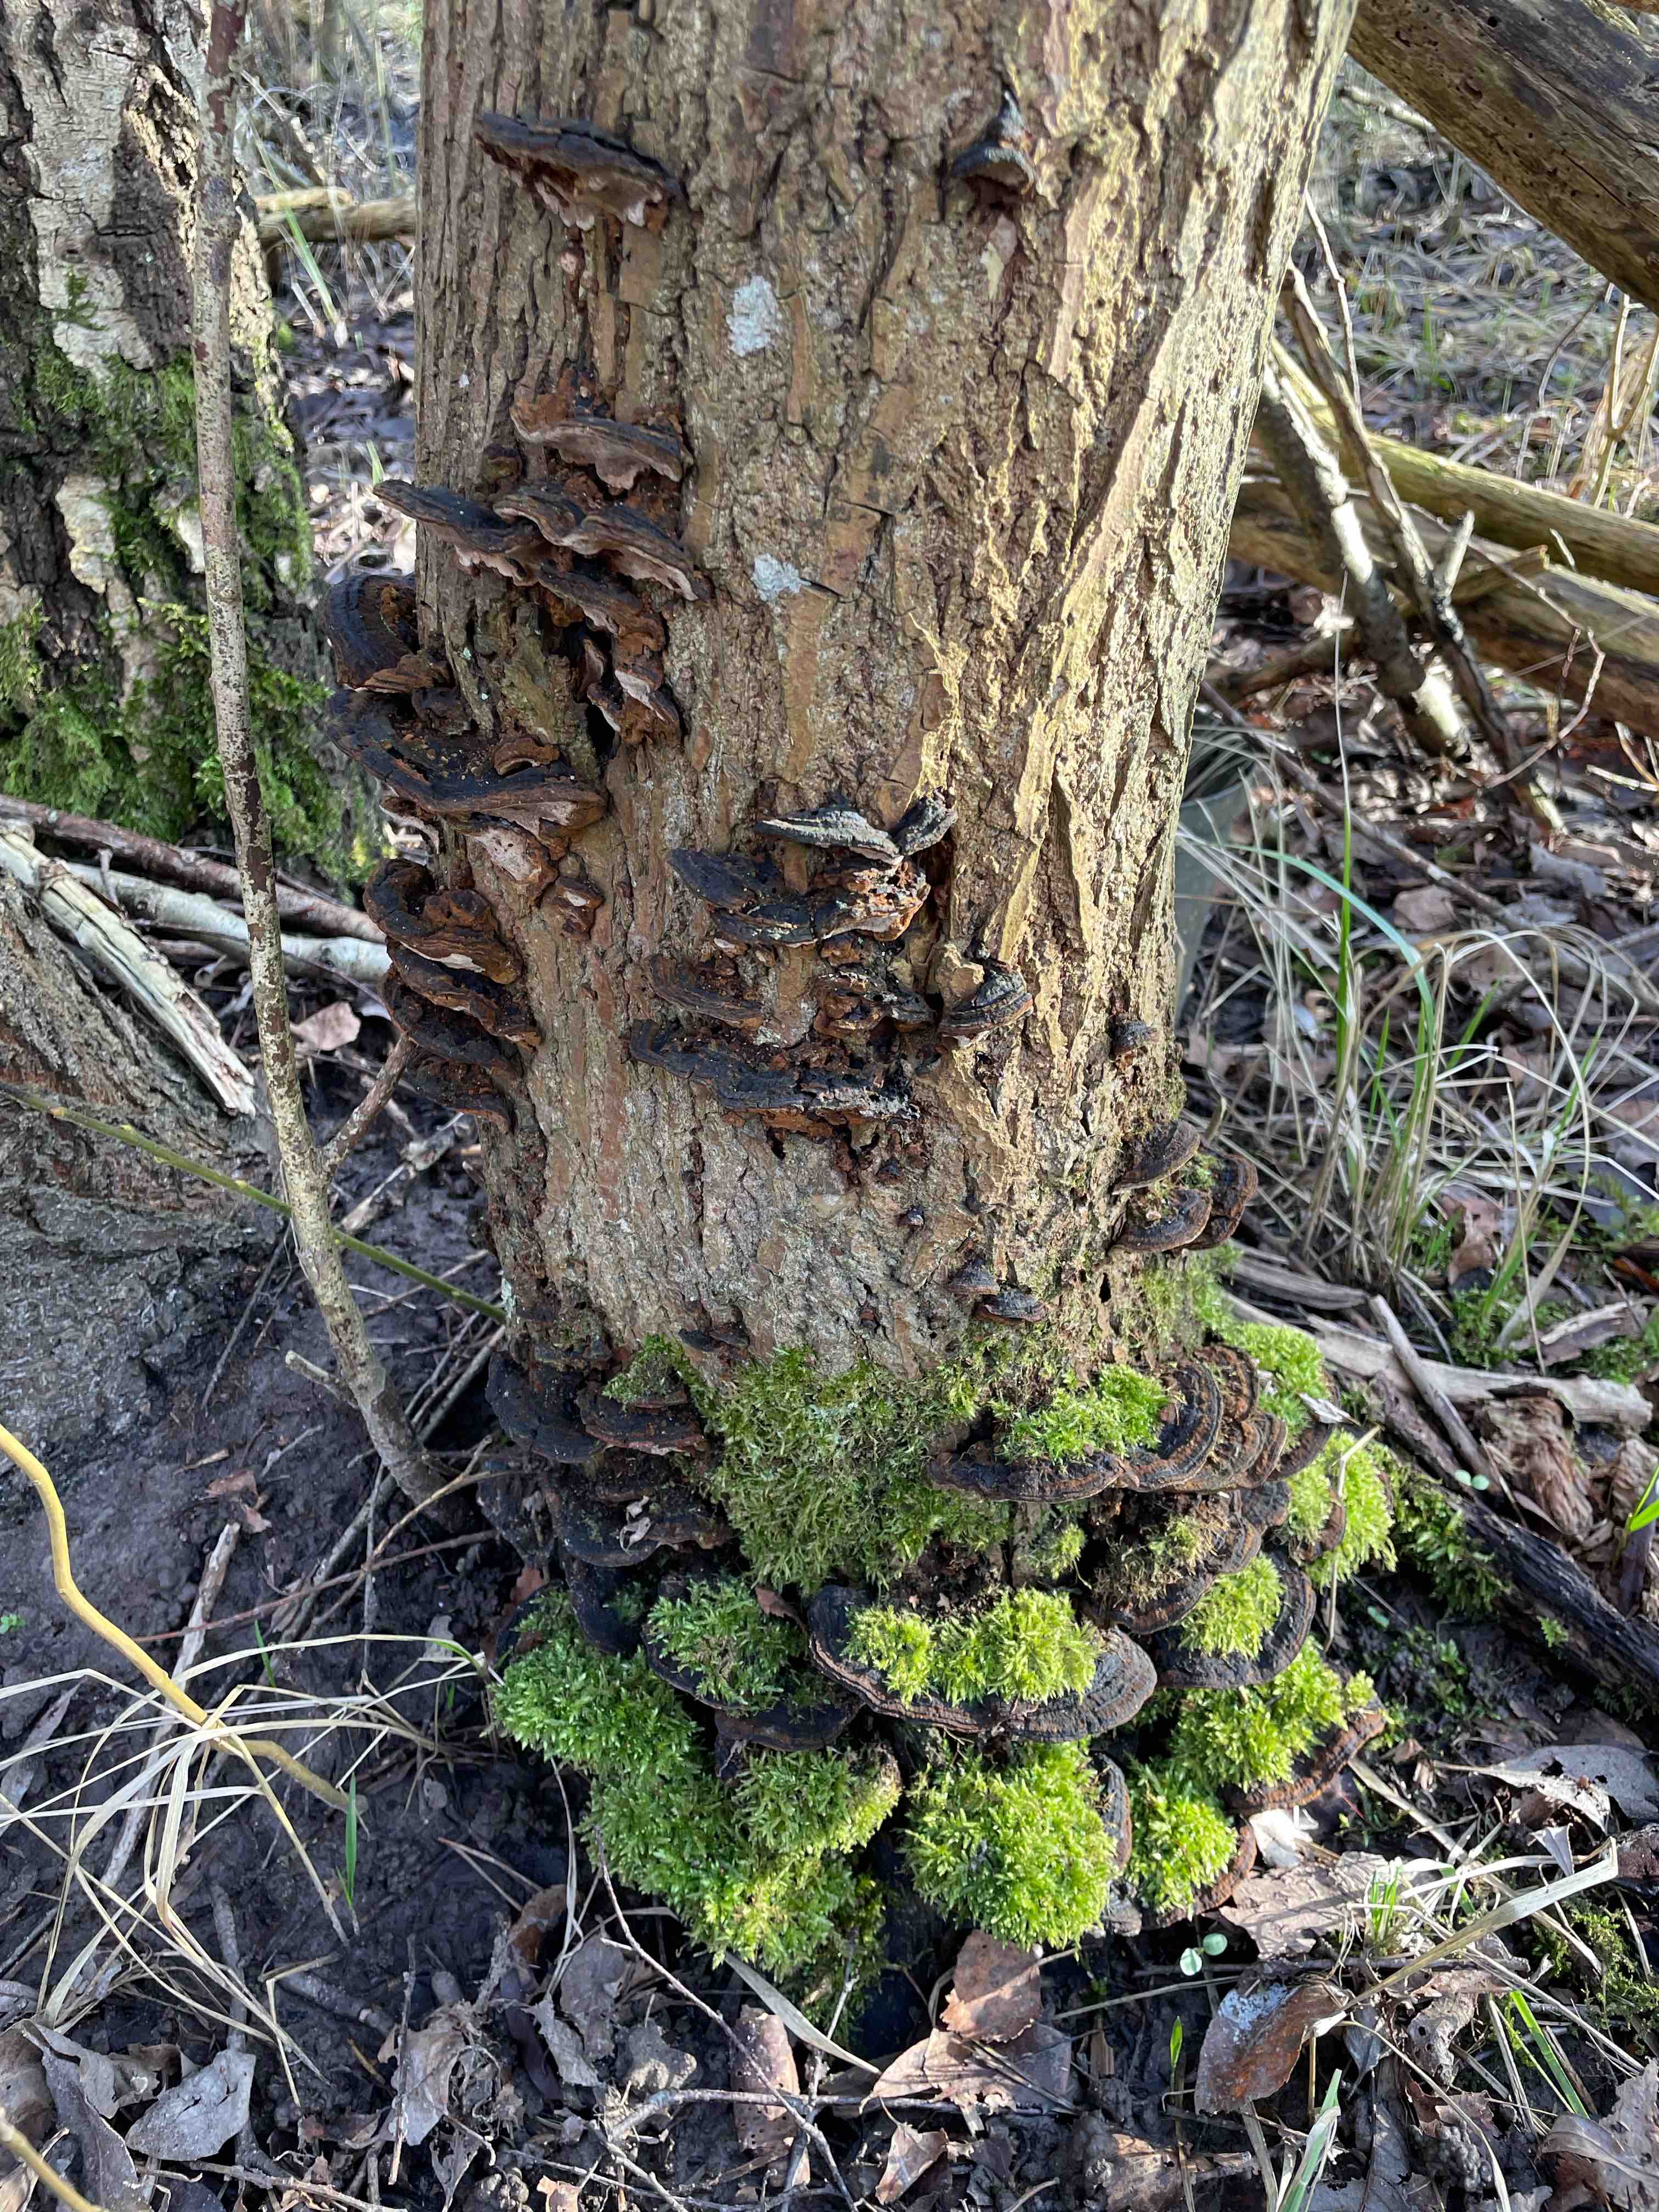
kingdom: Fungi
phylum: Basidiomycota
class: Agaricomycetes
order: Hymenochaetales
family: Hymenochaetaceae
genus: Phellinopsis
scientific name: Phellinopsis conchata
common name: pile-ildporesvamp
